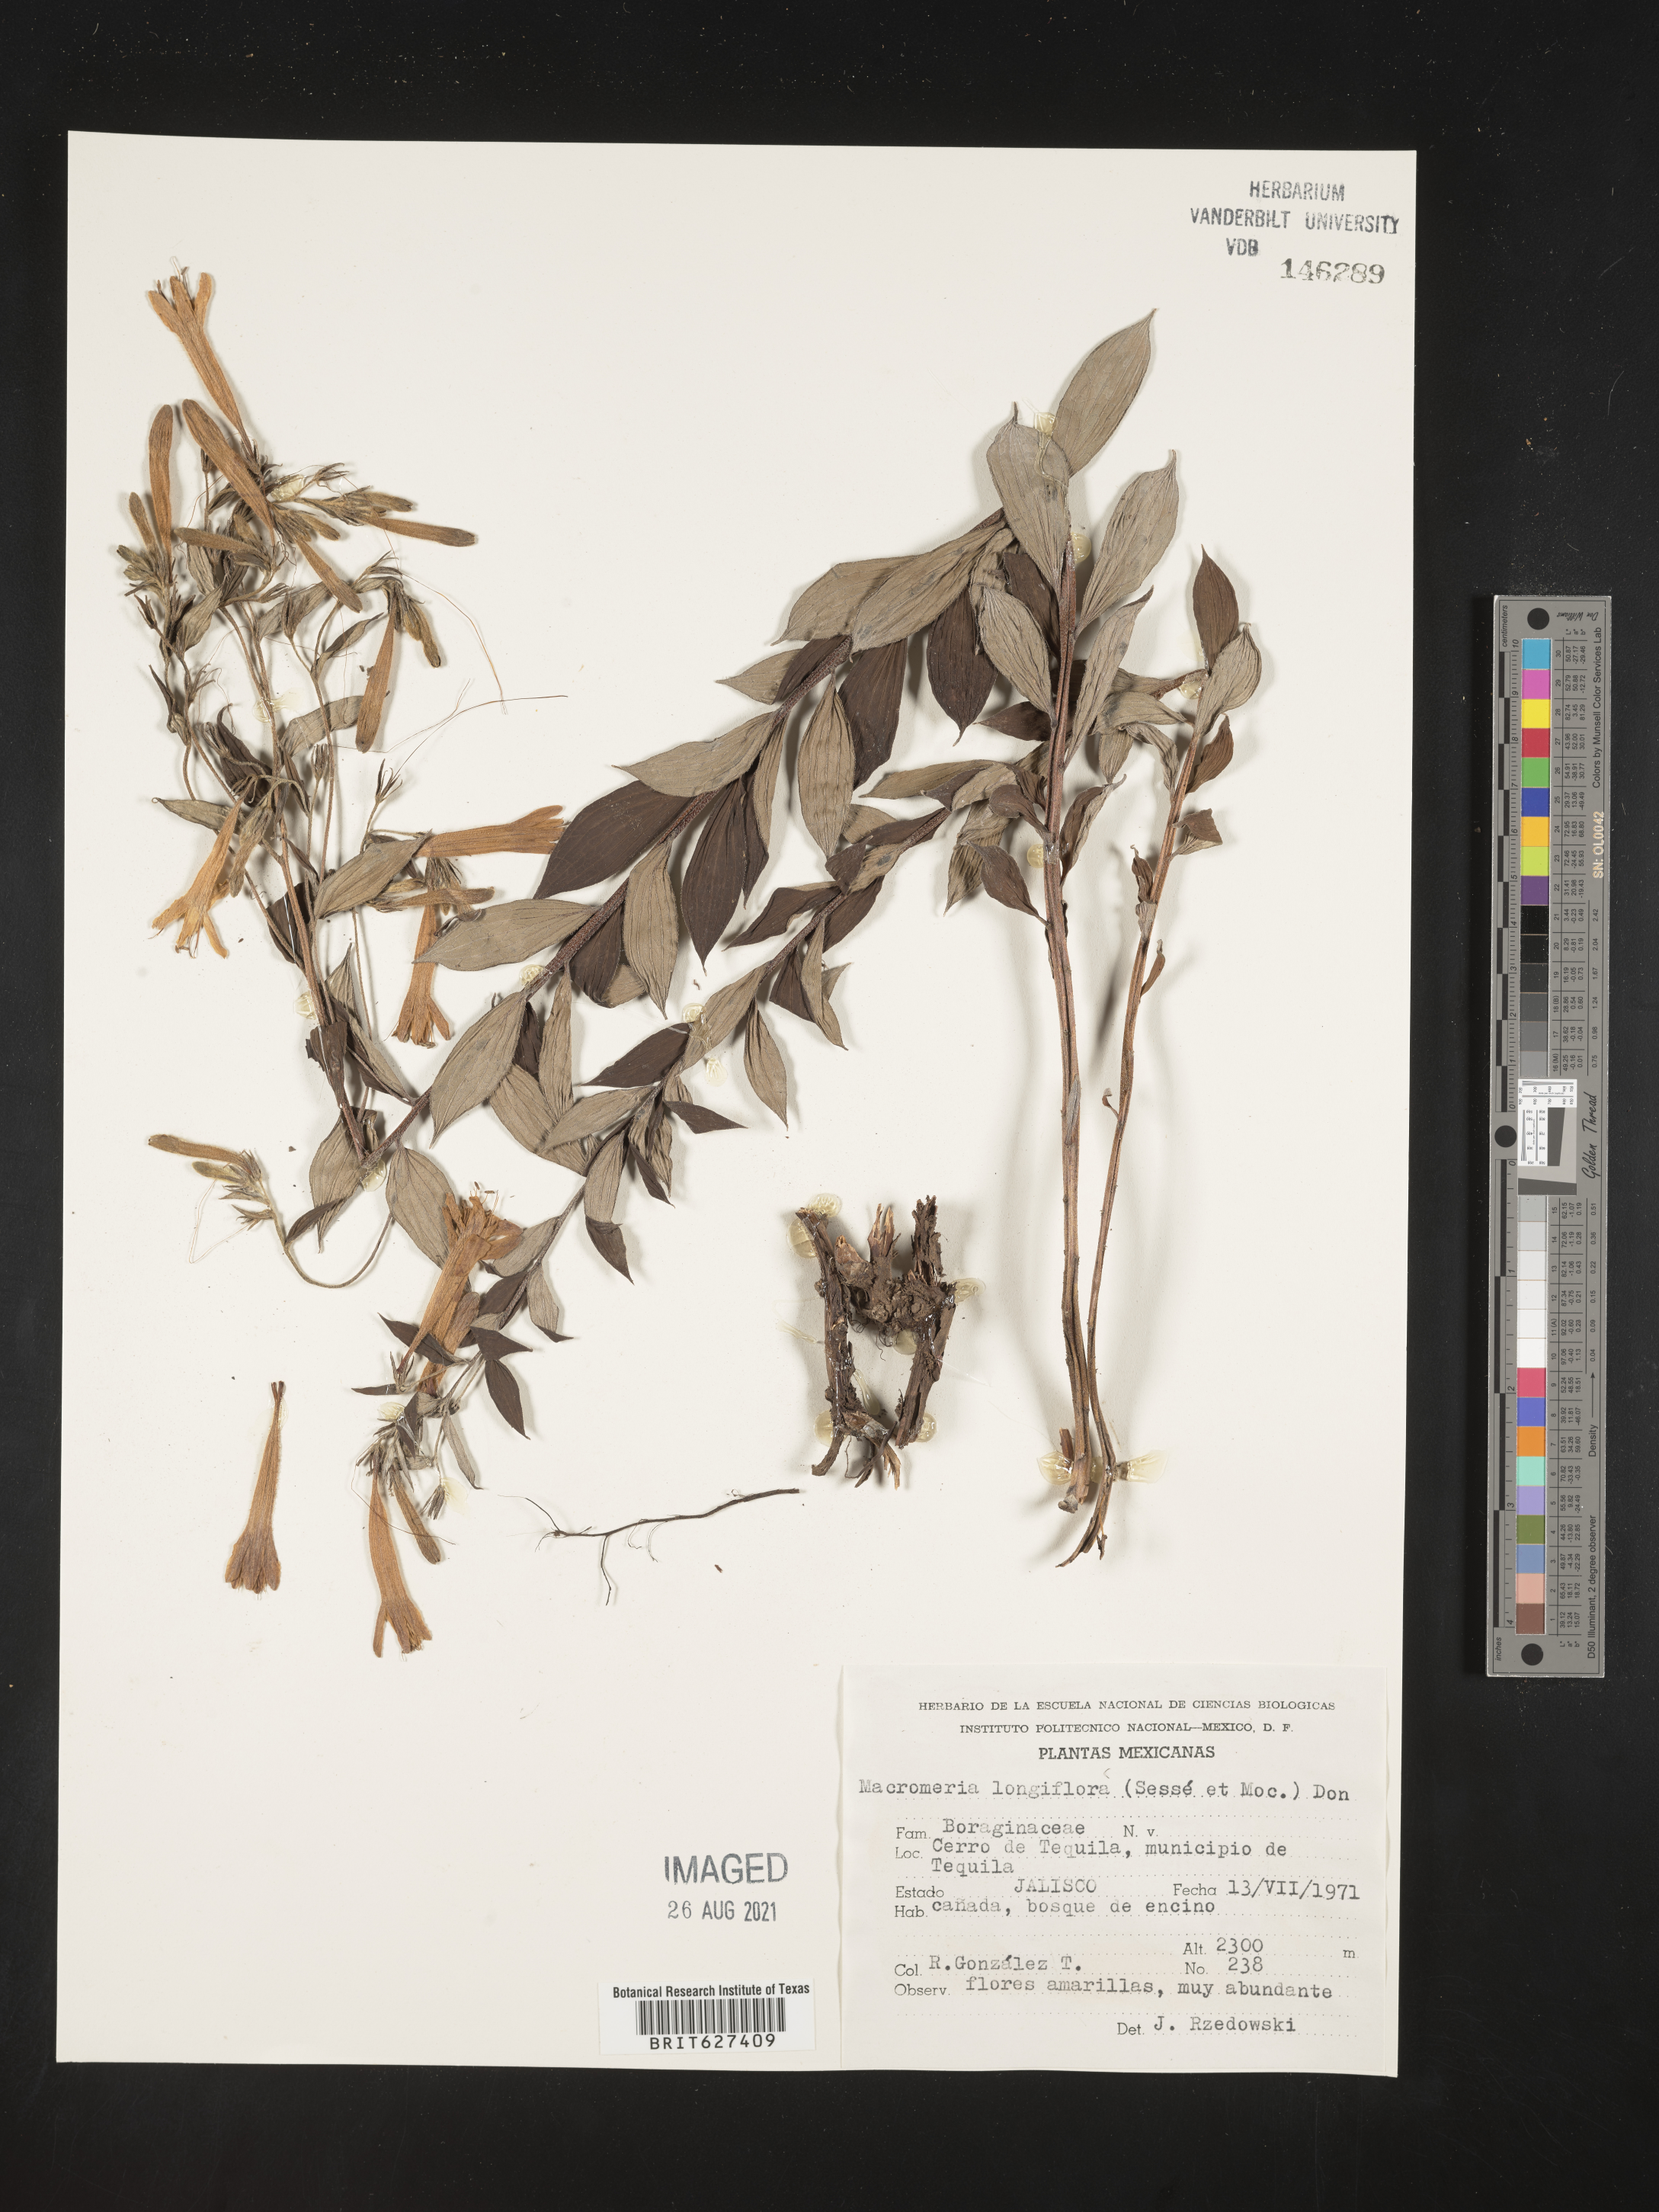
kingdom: Animalia
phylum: Arthropoda
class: Insecta
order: Hymenoptera
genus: Macromeria
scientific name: Macromeria
